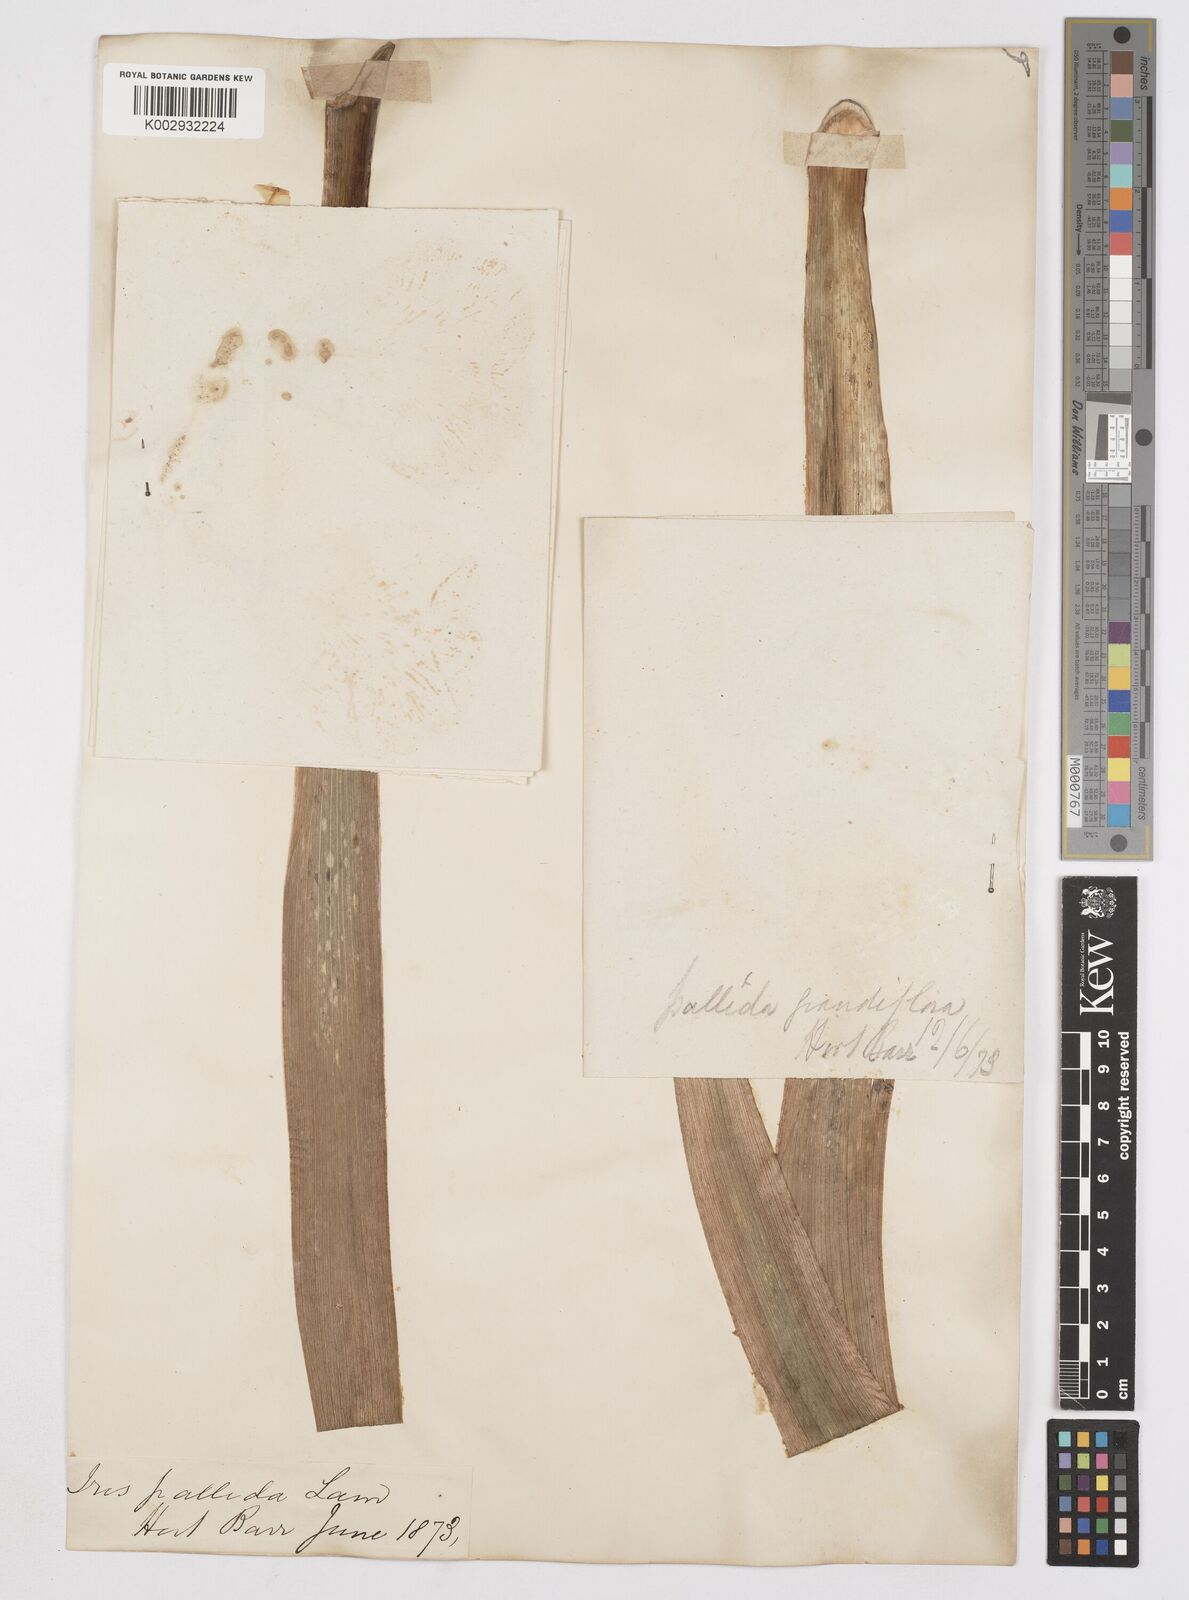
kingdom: Plantae
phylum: Tracheophyta
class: Liliopsida
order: Asparagales
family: Iridaceae
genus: Iris
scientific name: Iris pallida
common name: Sweet iris
